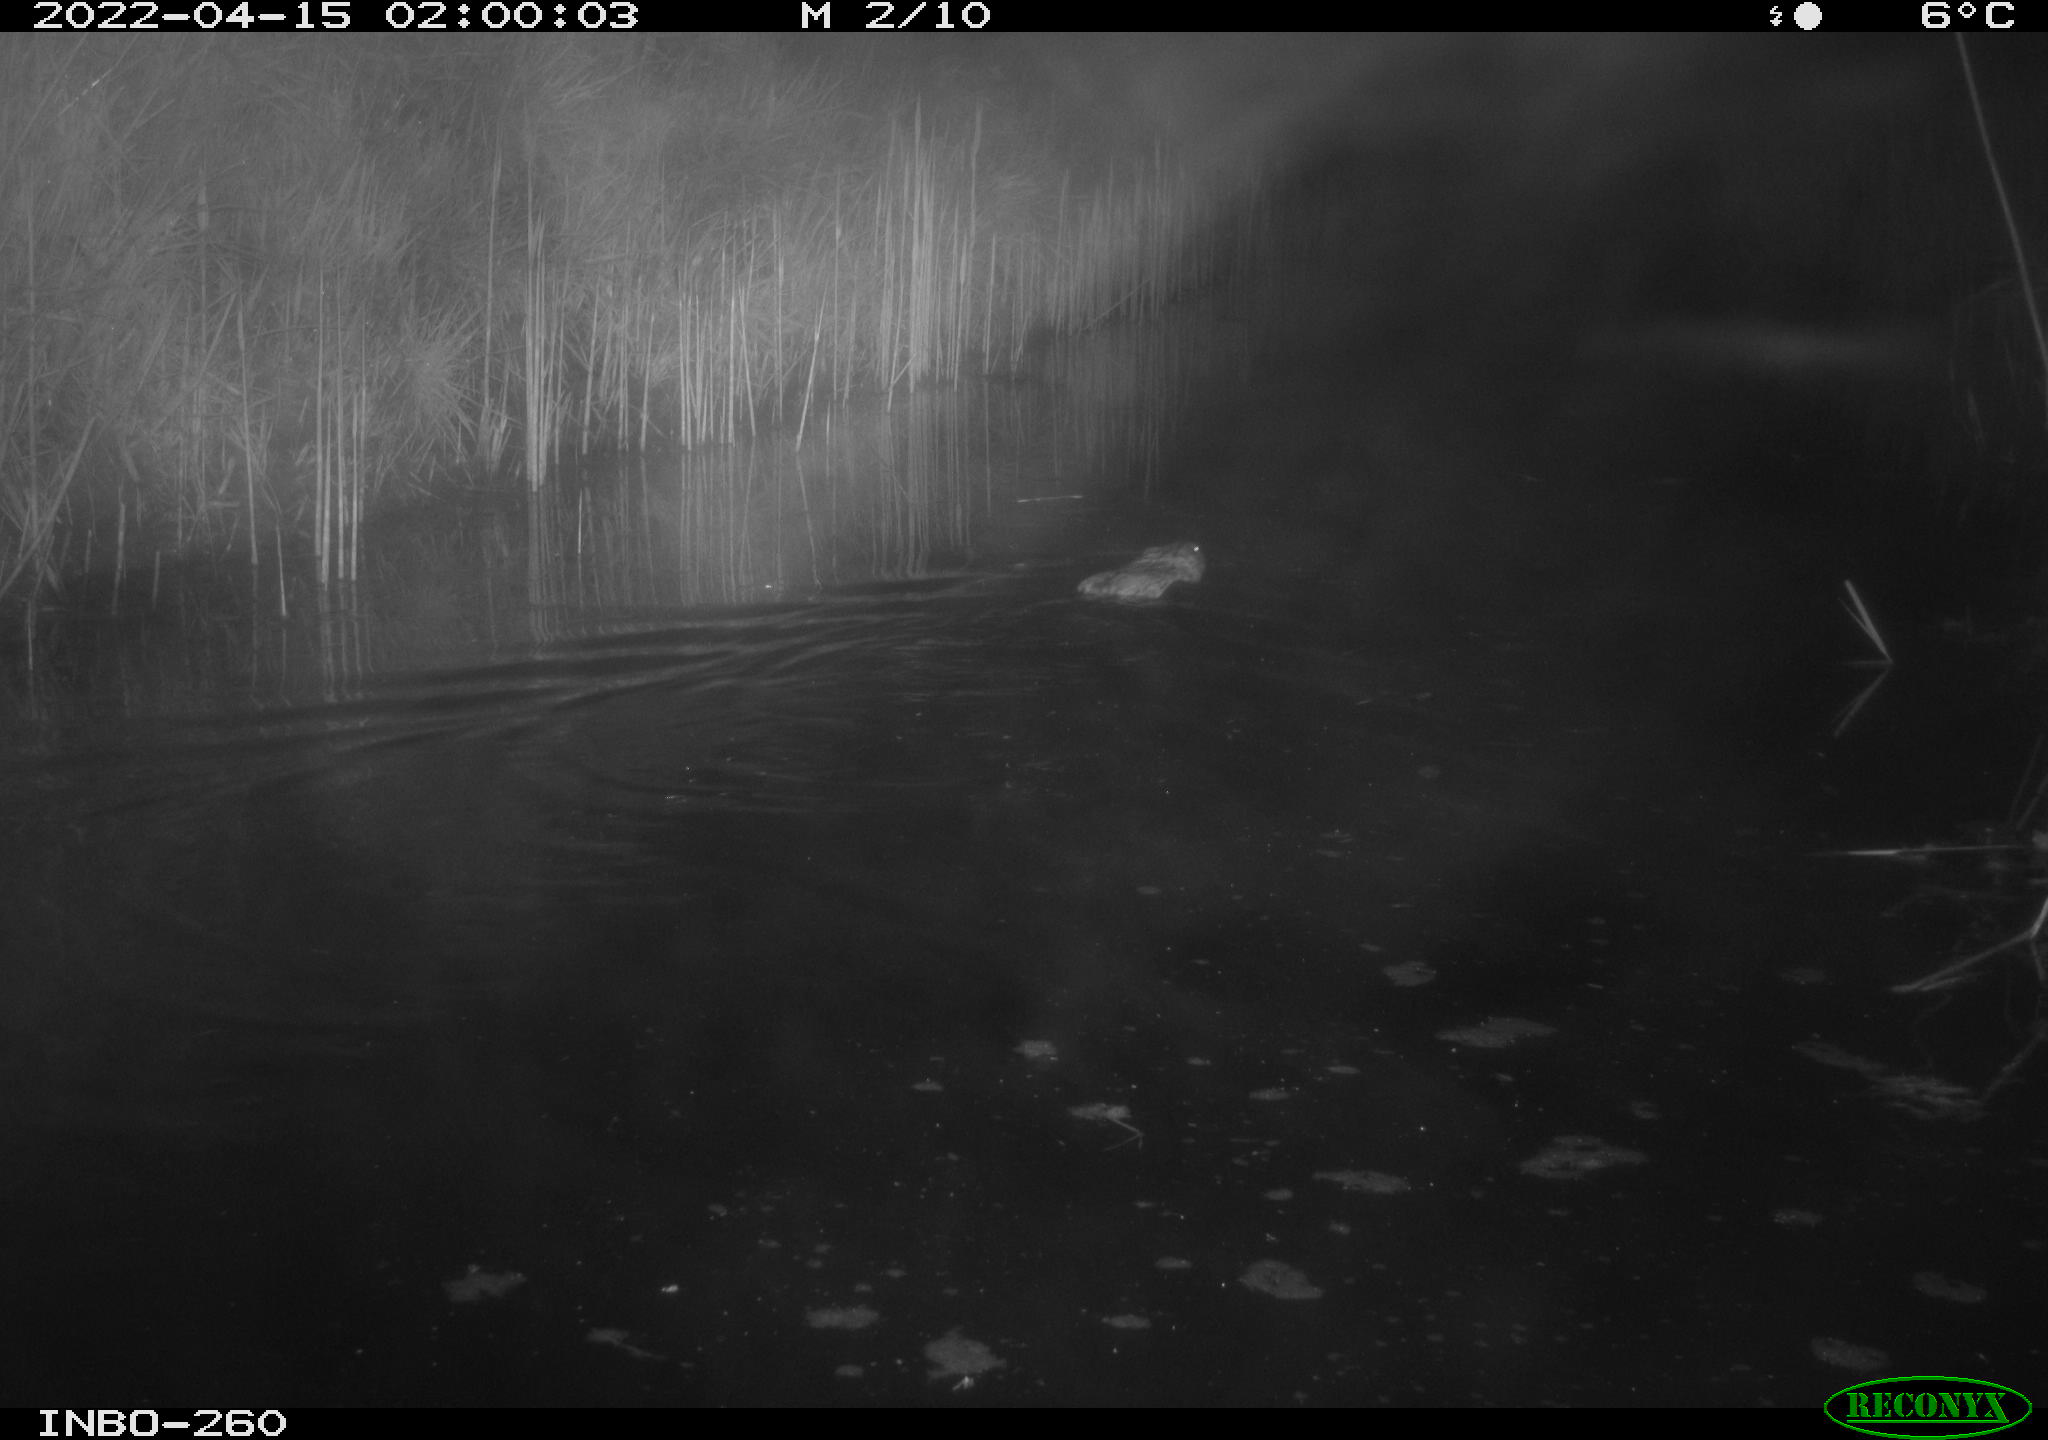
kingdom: Animalia
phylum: Chordata
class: Mammalia
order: Rodentia
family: Cricetidae
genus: Ondatra
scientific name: Ondatra zibethicus
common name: Muskrat
